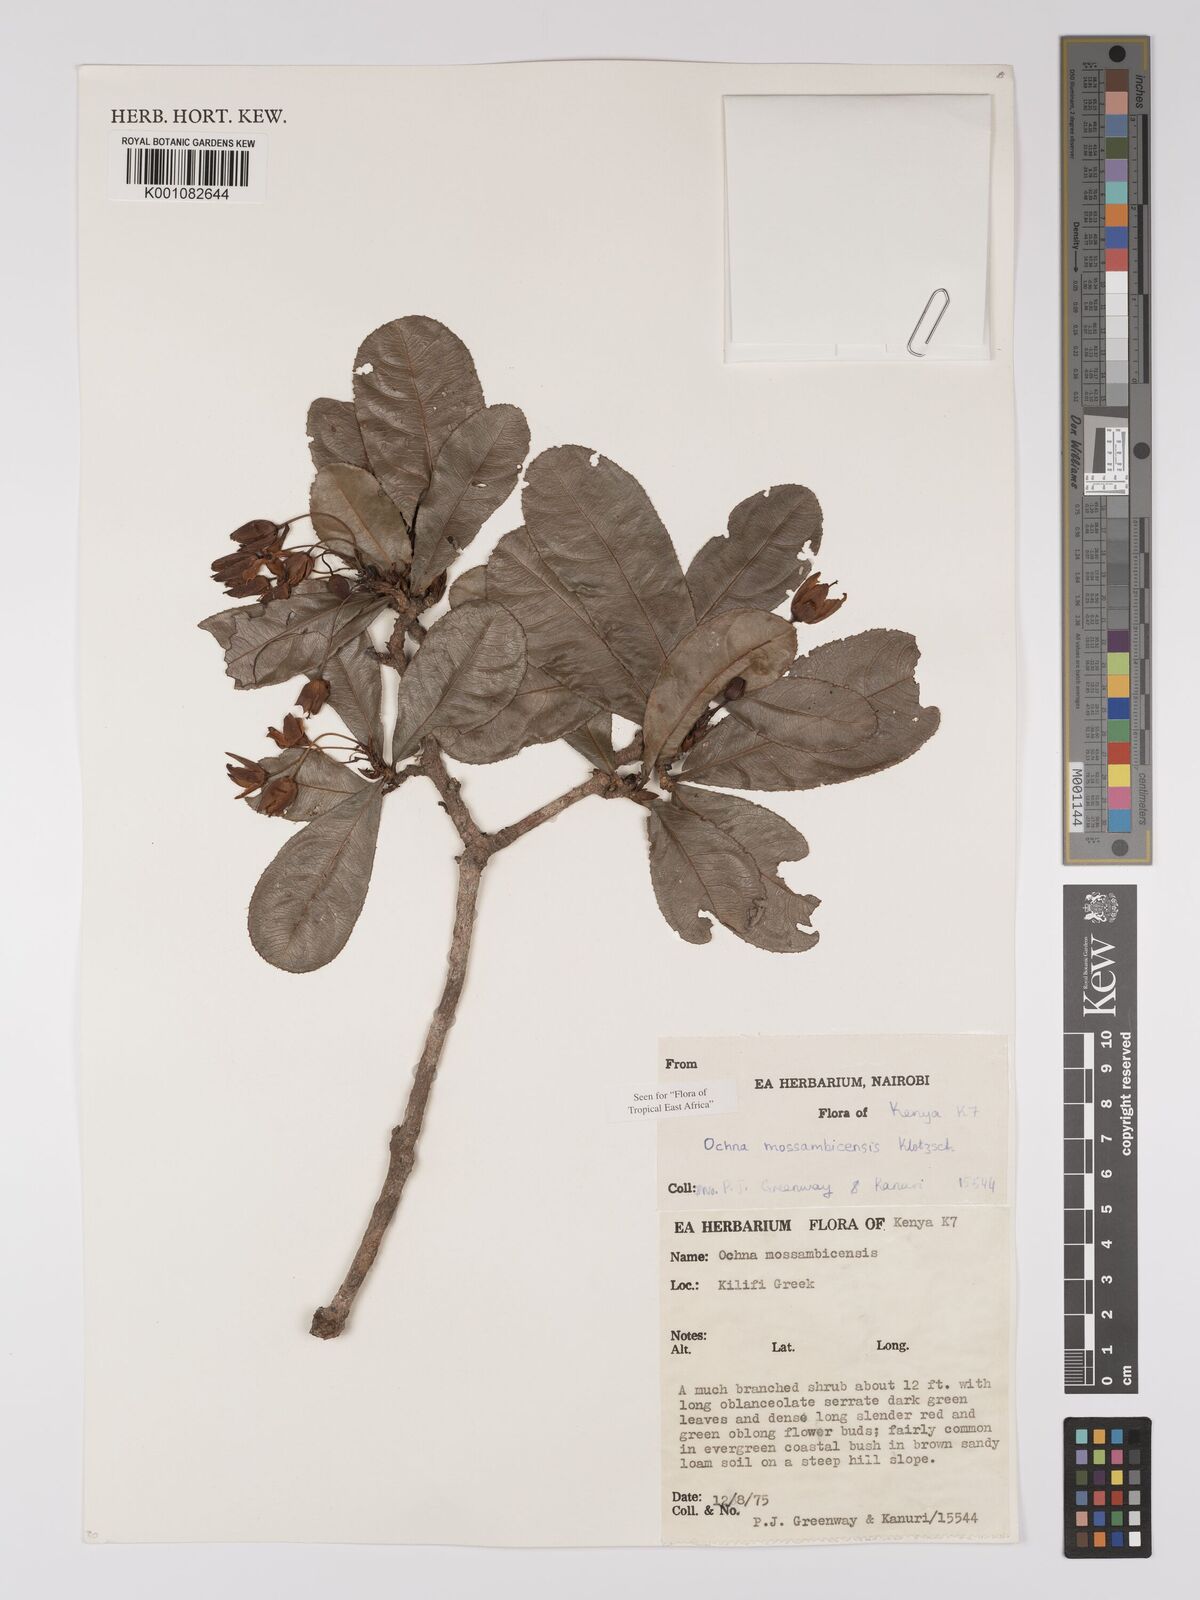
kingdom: Plantae
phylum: Tracheophyta
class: Magnoliopsida
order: Malpighiales
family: Ochnaceae
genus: Ochna
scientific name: Ochna atropurpurea
